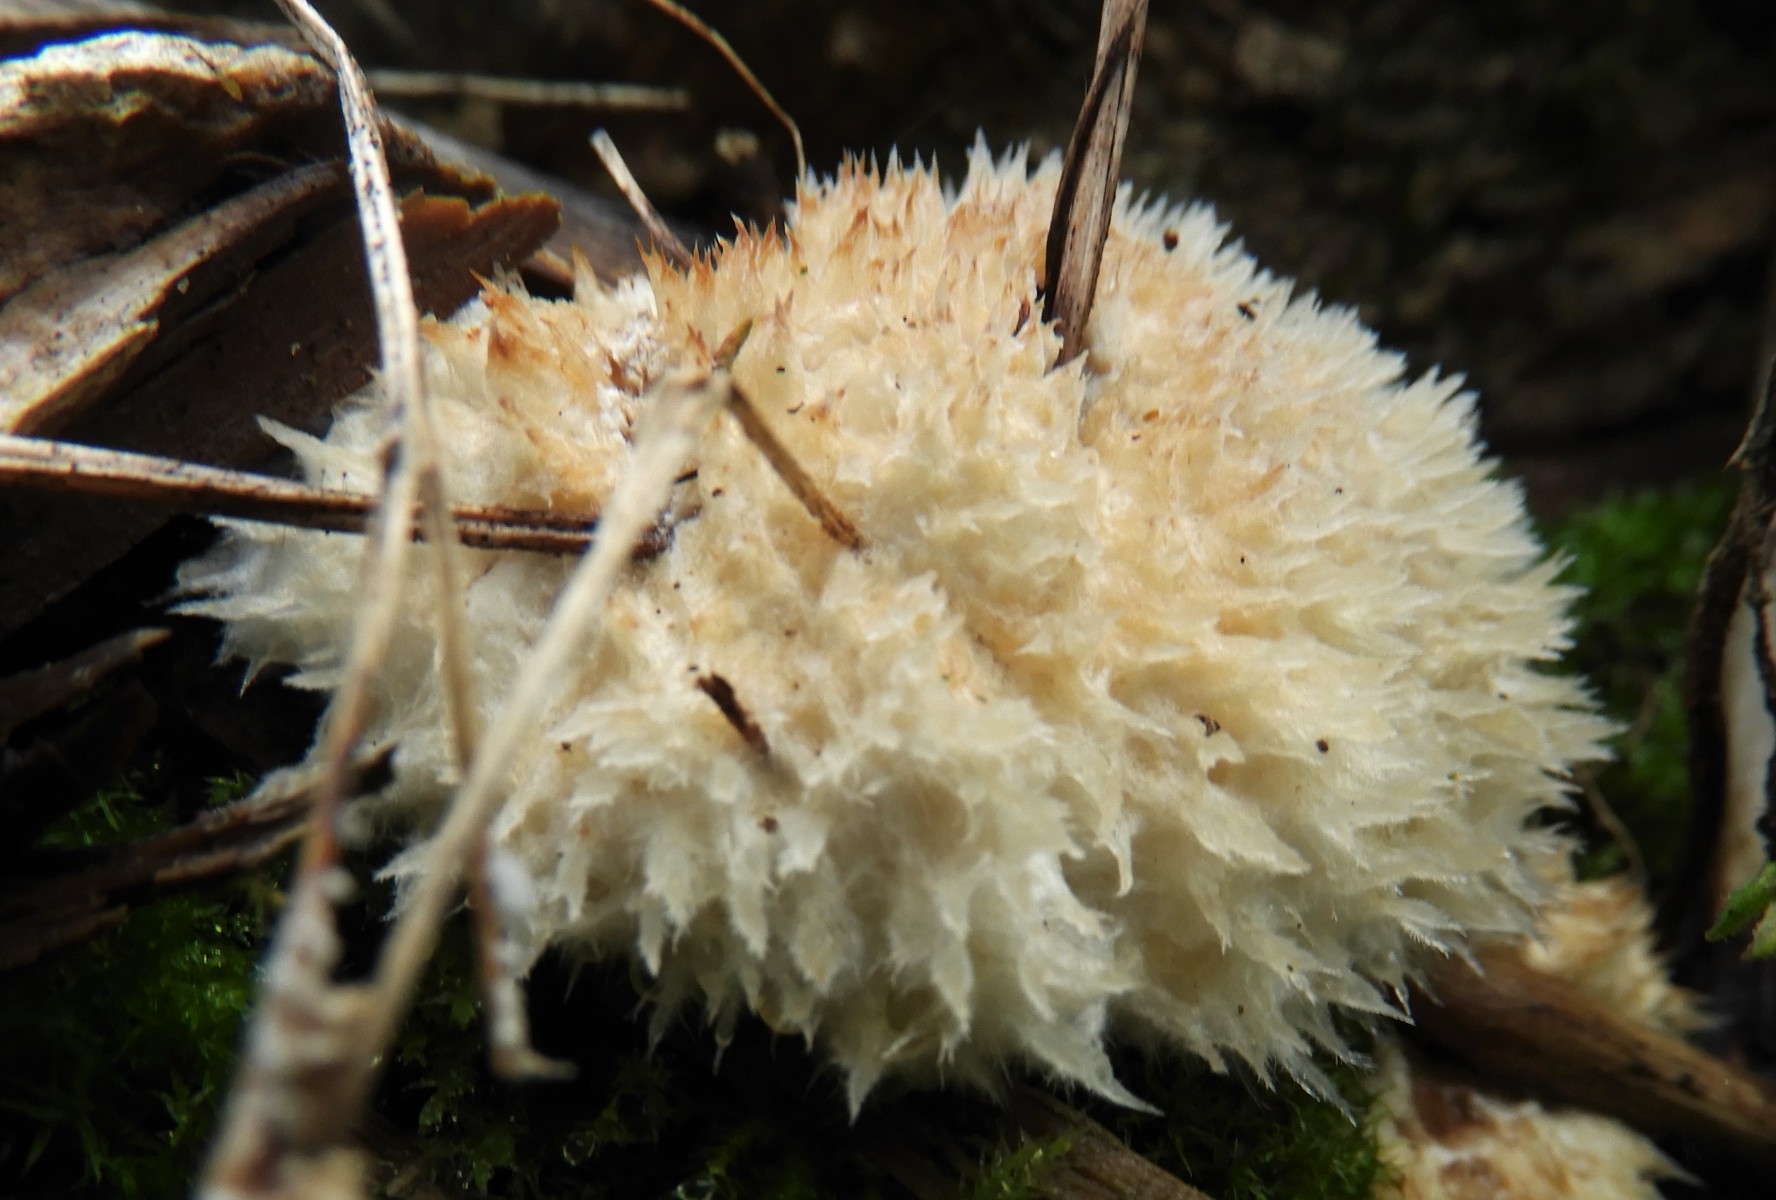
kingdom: Fungi
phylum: Basidiomycota
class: Agaricomycetes
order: Polyporales
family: Dacryobolaceae
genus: Postia
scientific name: Postia ptychogaster
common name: støvende kødporesvamp
